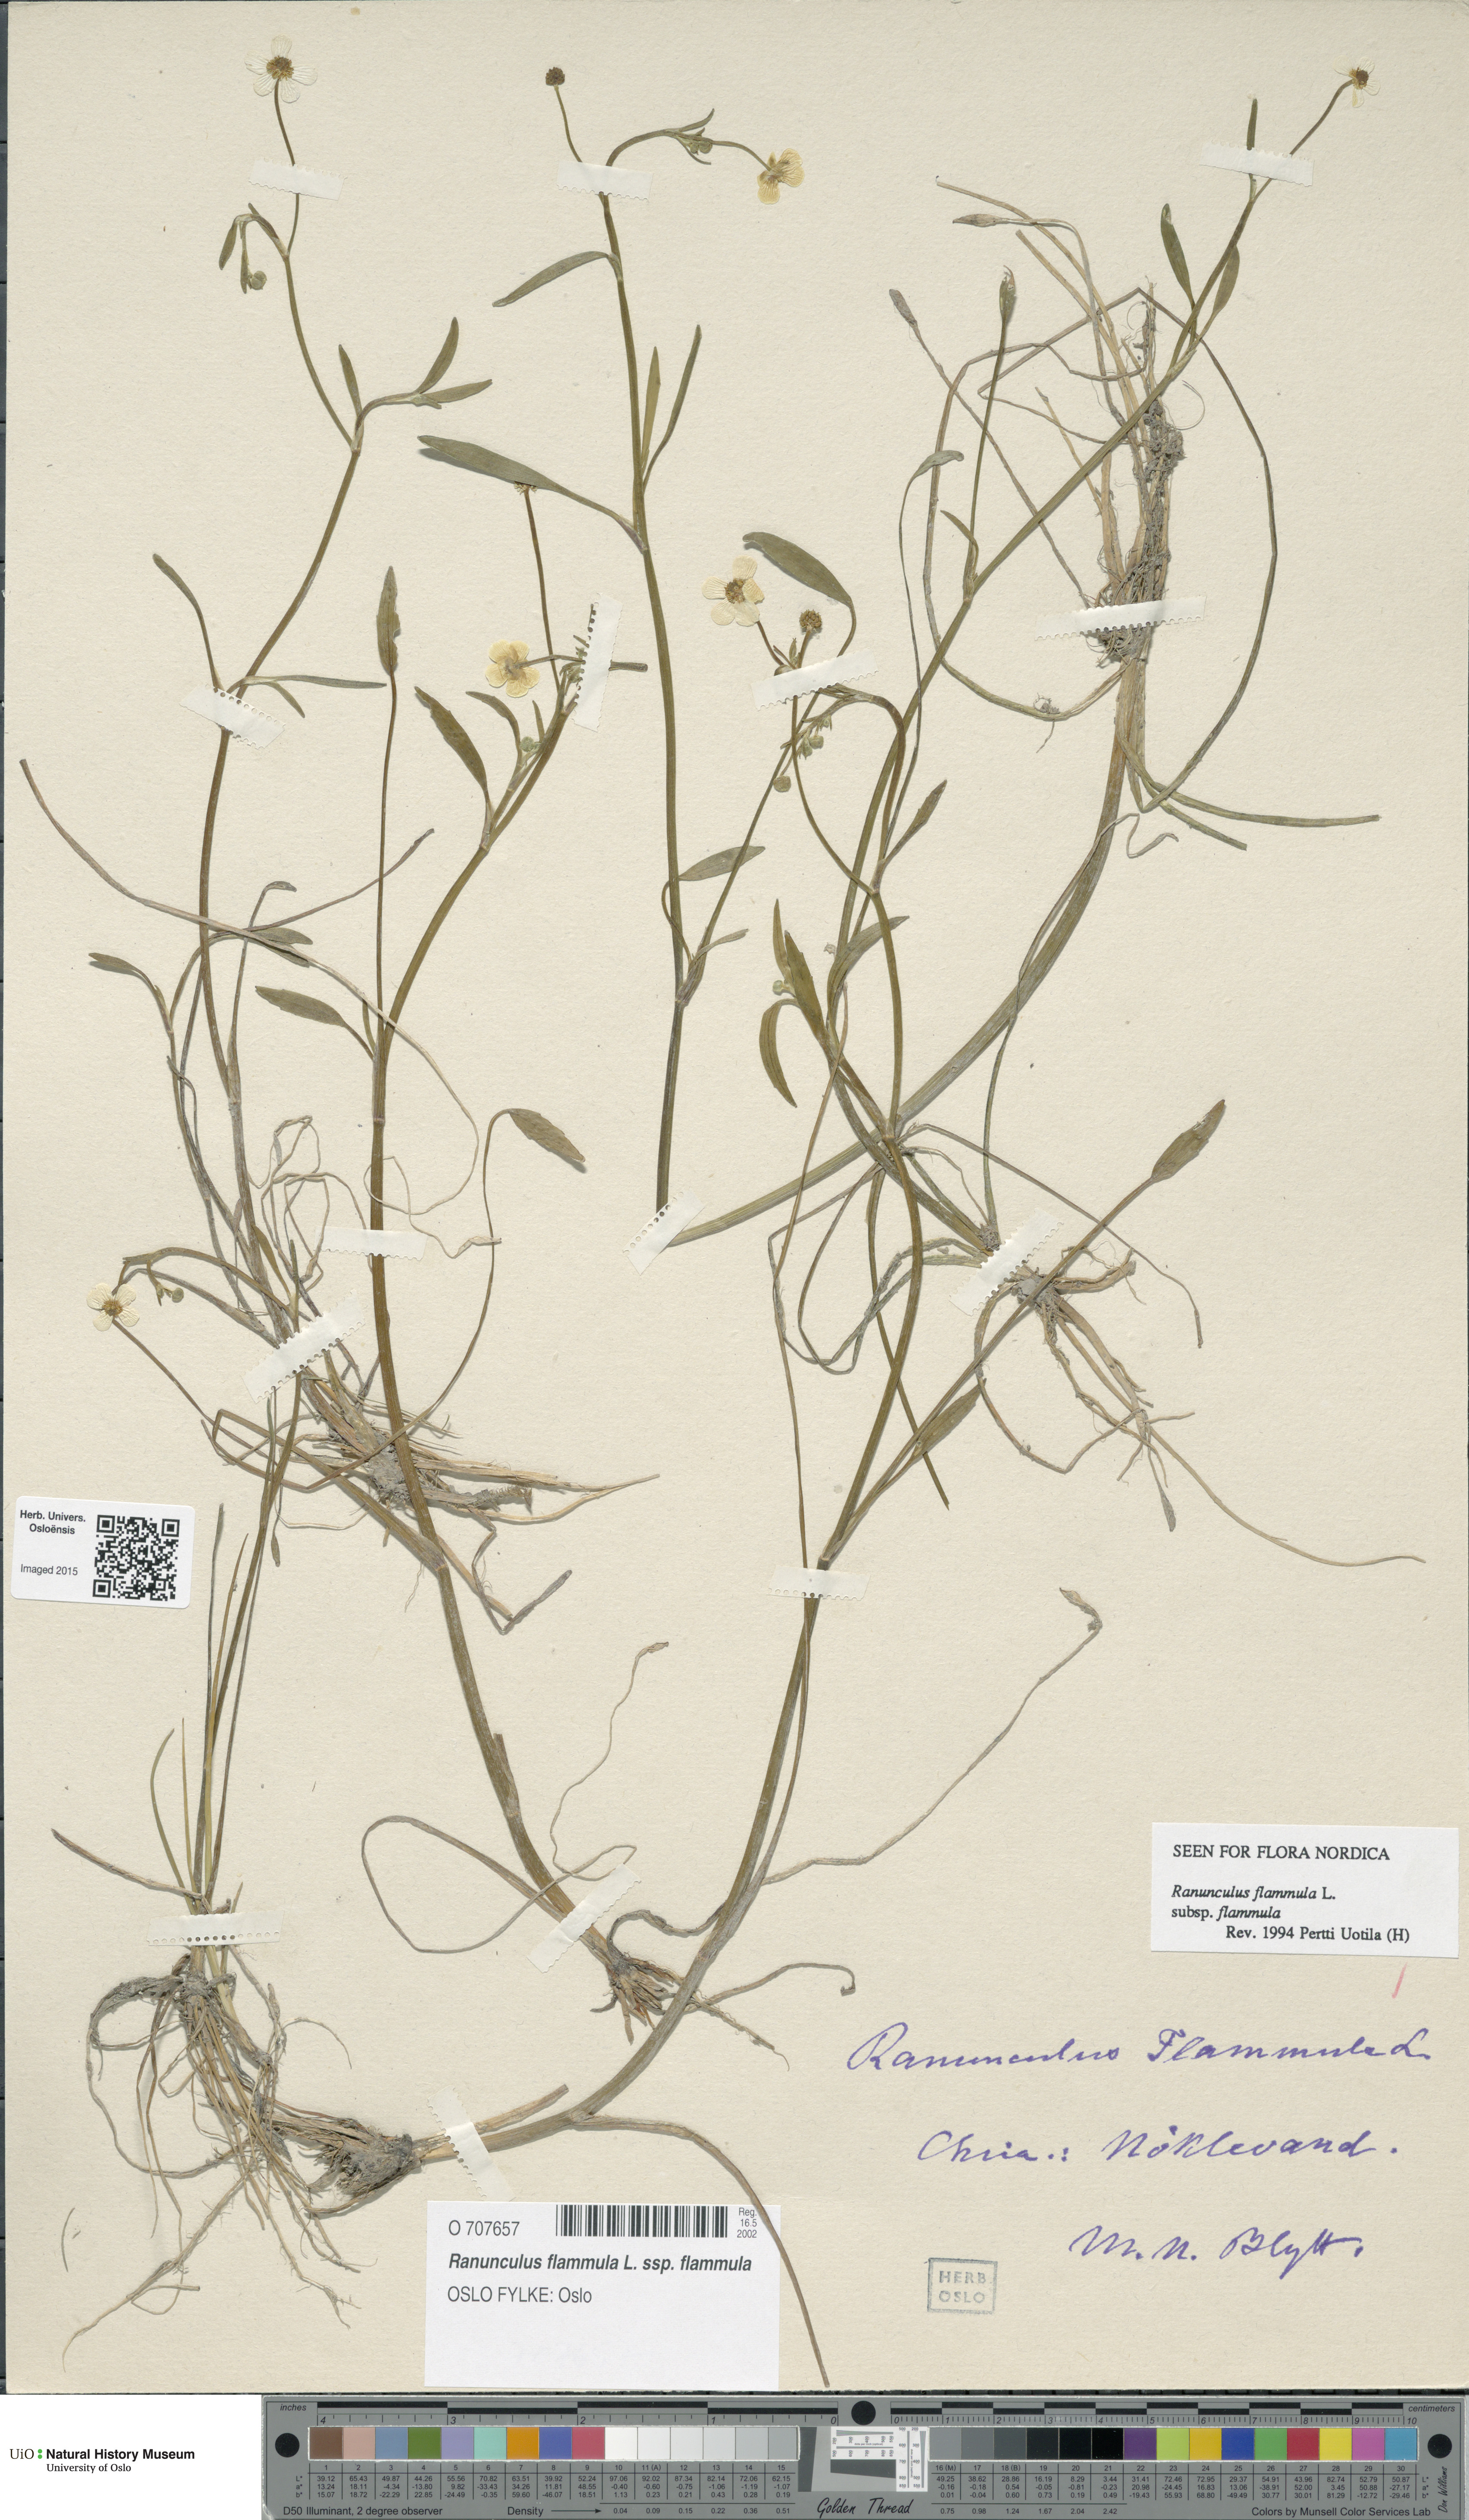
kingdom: Plantae
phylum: Tracheophyta
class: Magnoliopsida
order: Ranunculales
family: Ranunculaceae
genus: Ranunculus
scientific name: Ranunculus flammula
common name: Lesser spearwort
